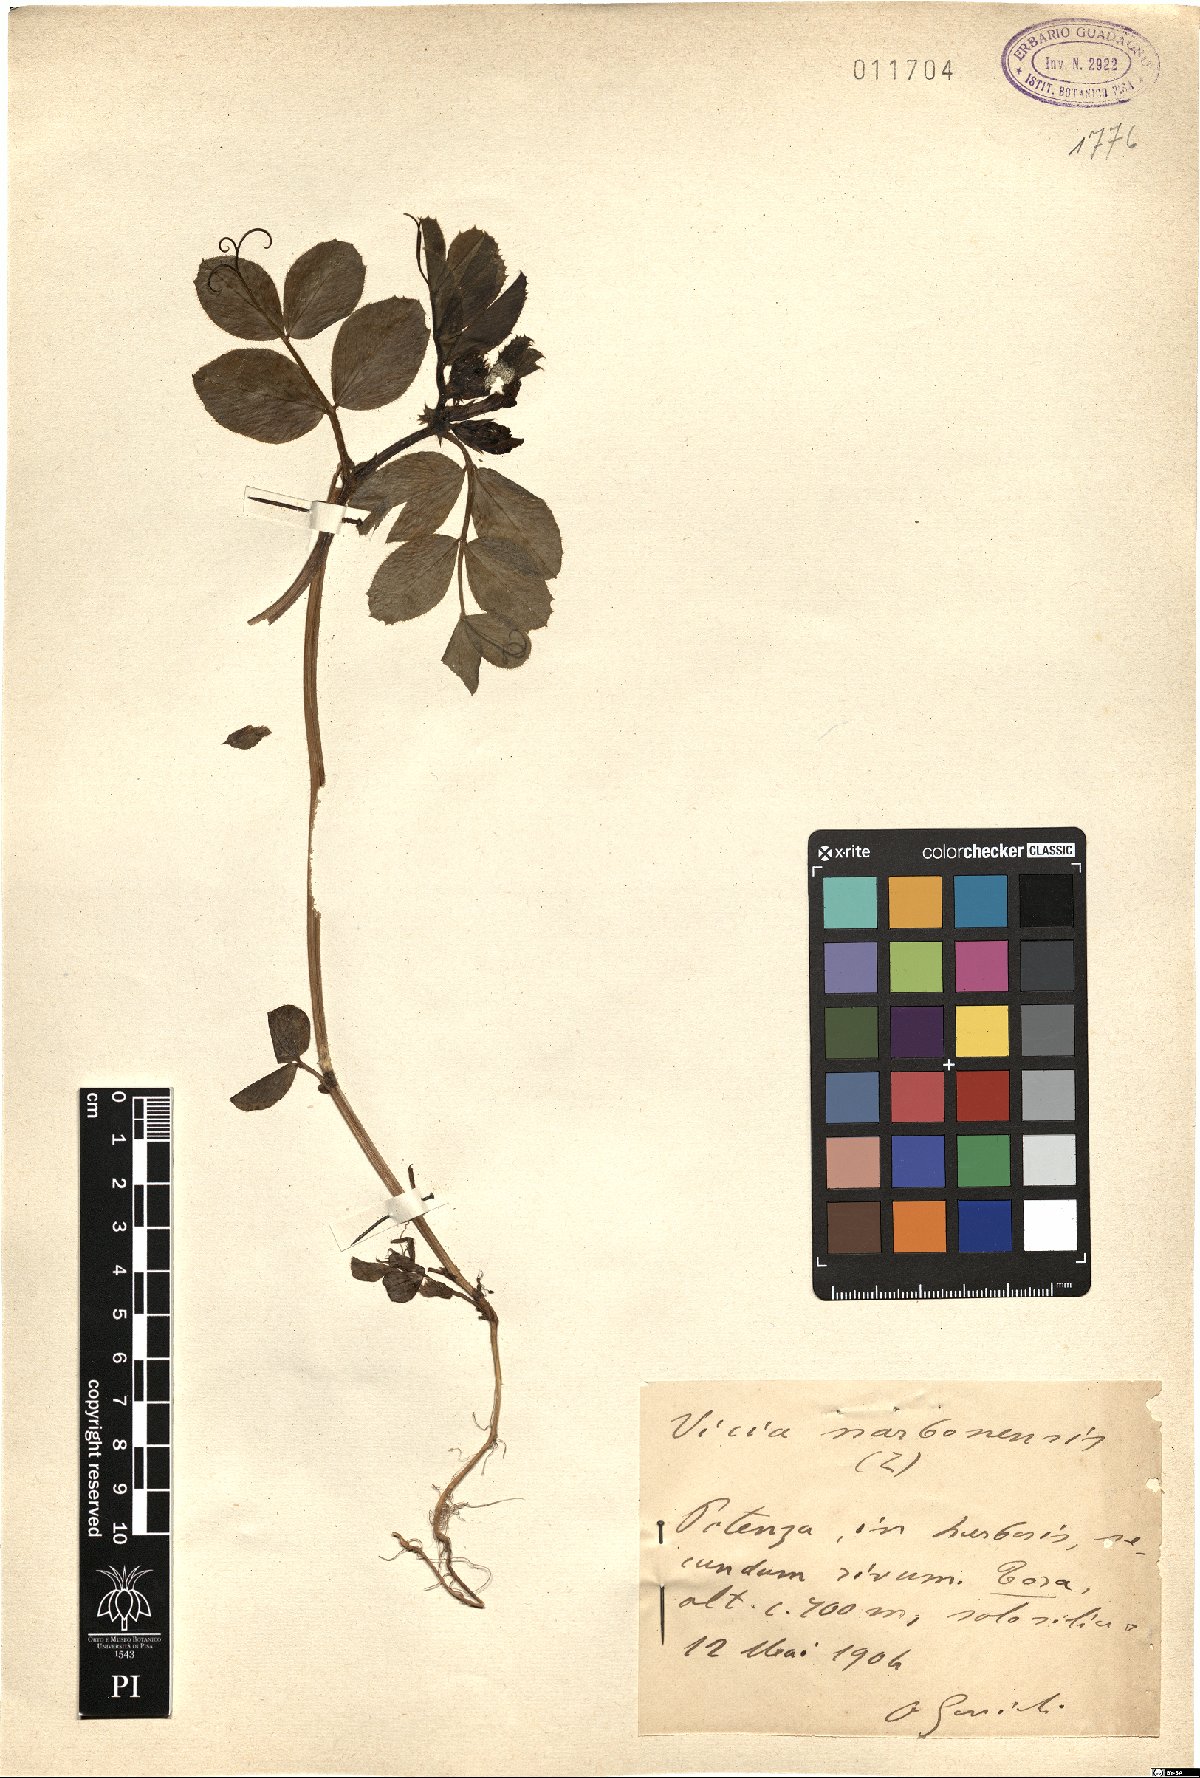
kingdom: Plantae
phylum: Tracheophyta
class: Magnoliopsida
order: Fabales
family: Fabaceae
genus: Vicia
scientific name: Vicia narbonensis
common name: Narbonne vetch
